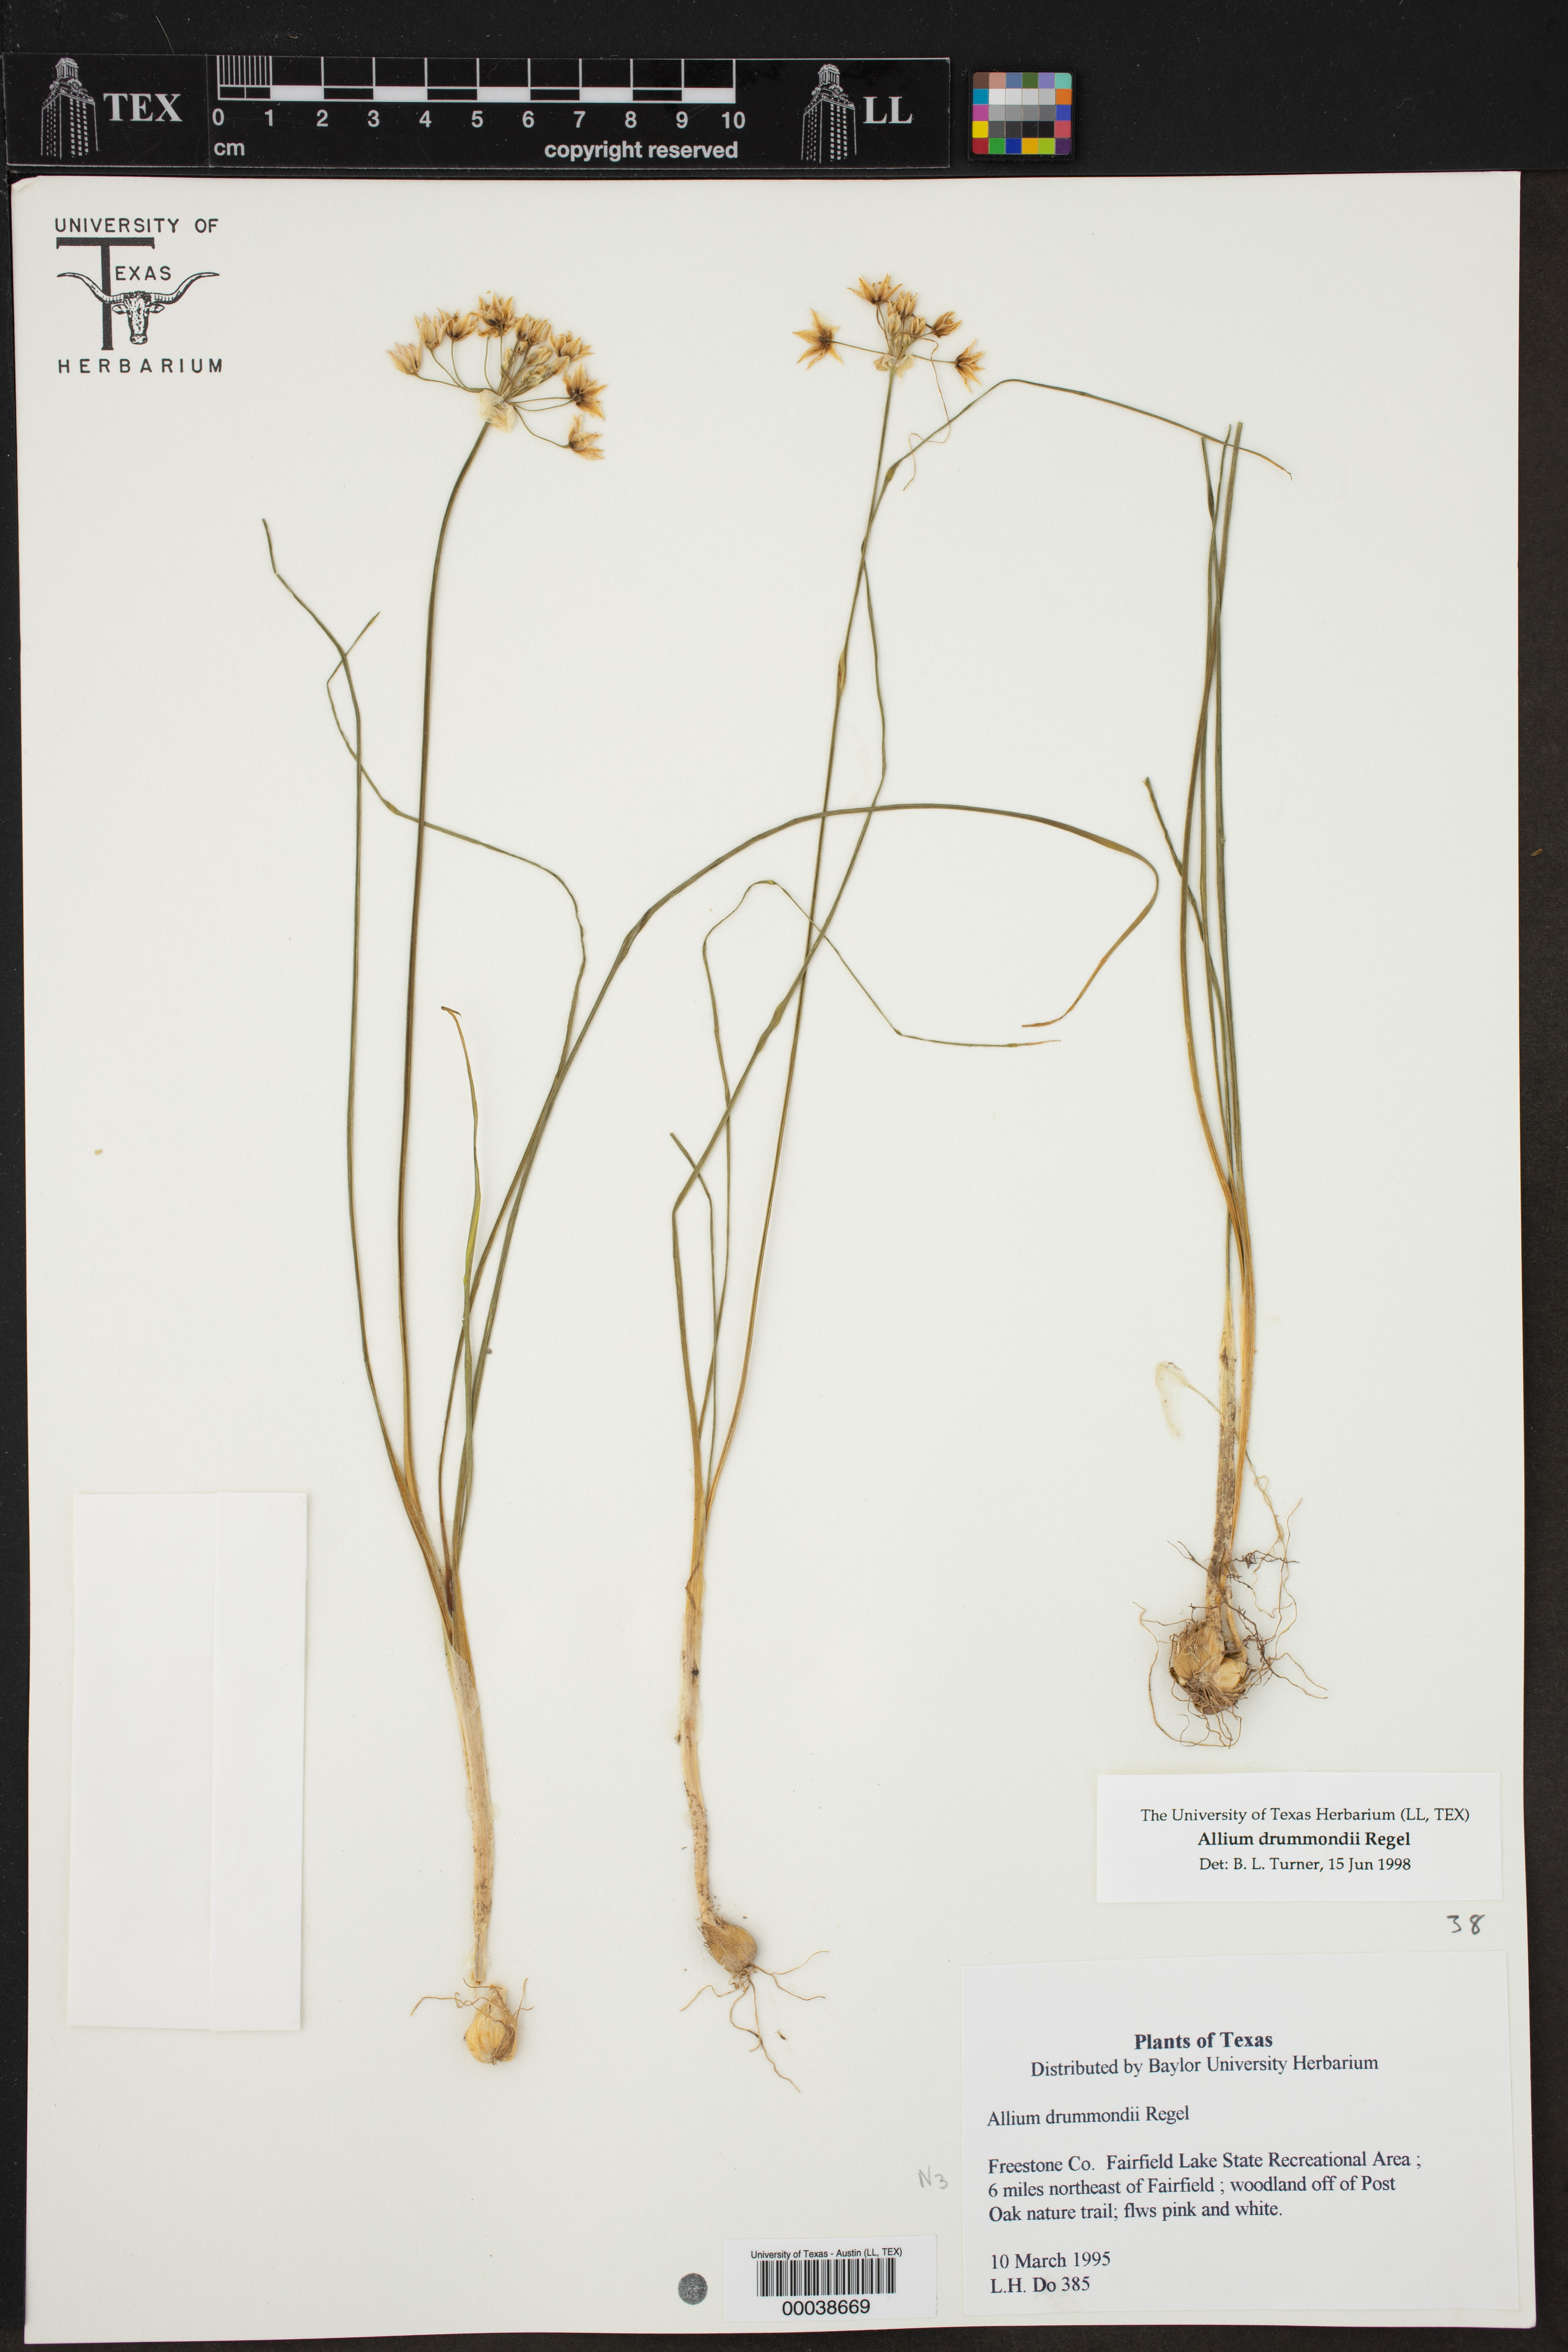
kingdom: Plantae
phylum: Tracheophyta
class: Liliopsida
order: Asparagales
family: Amaryllidaceae
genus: Allium
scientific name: Allium drummondii
